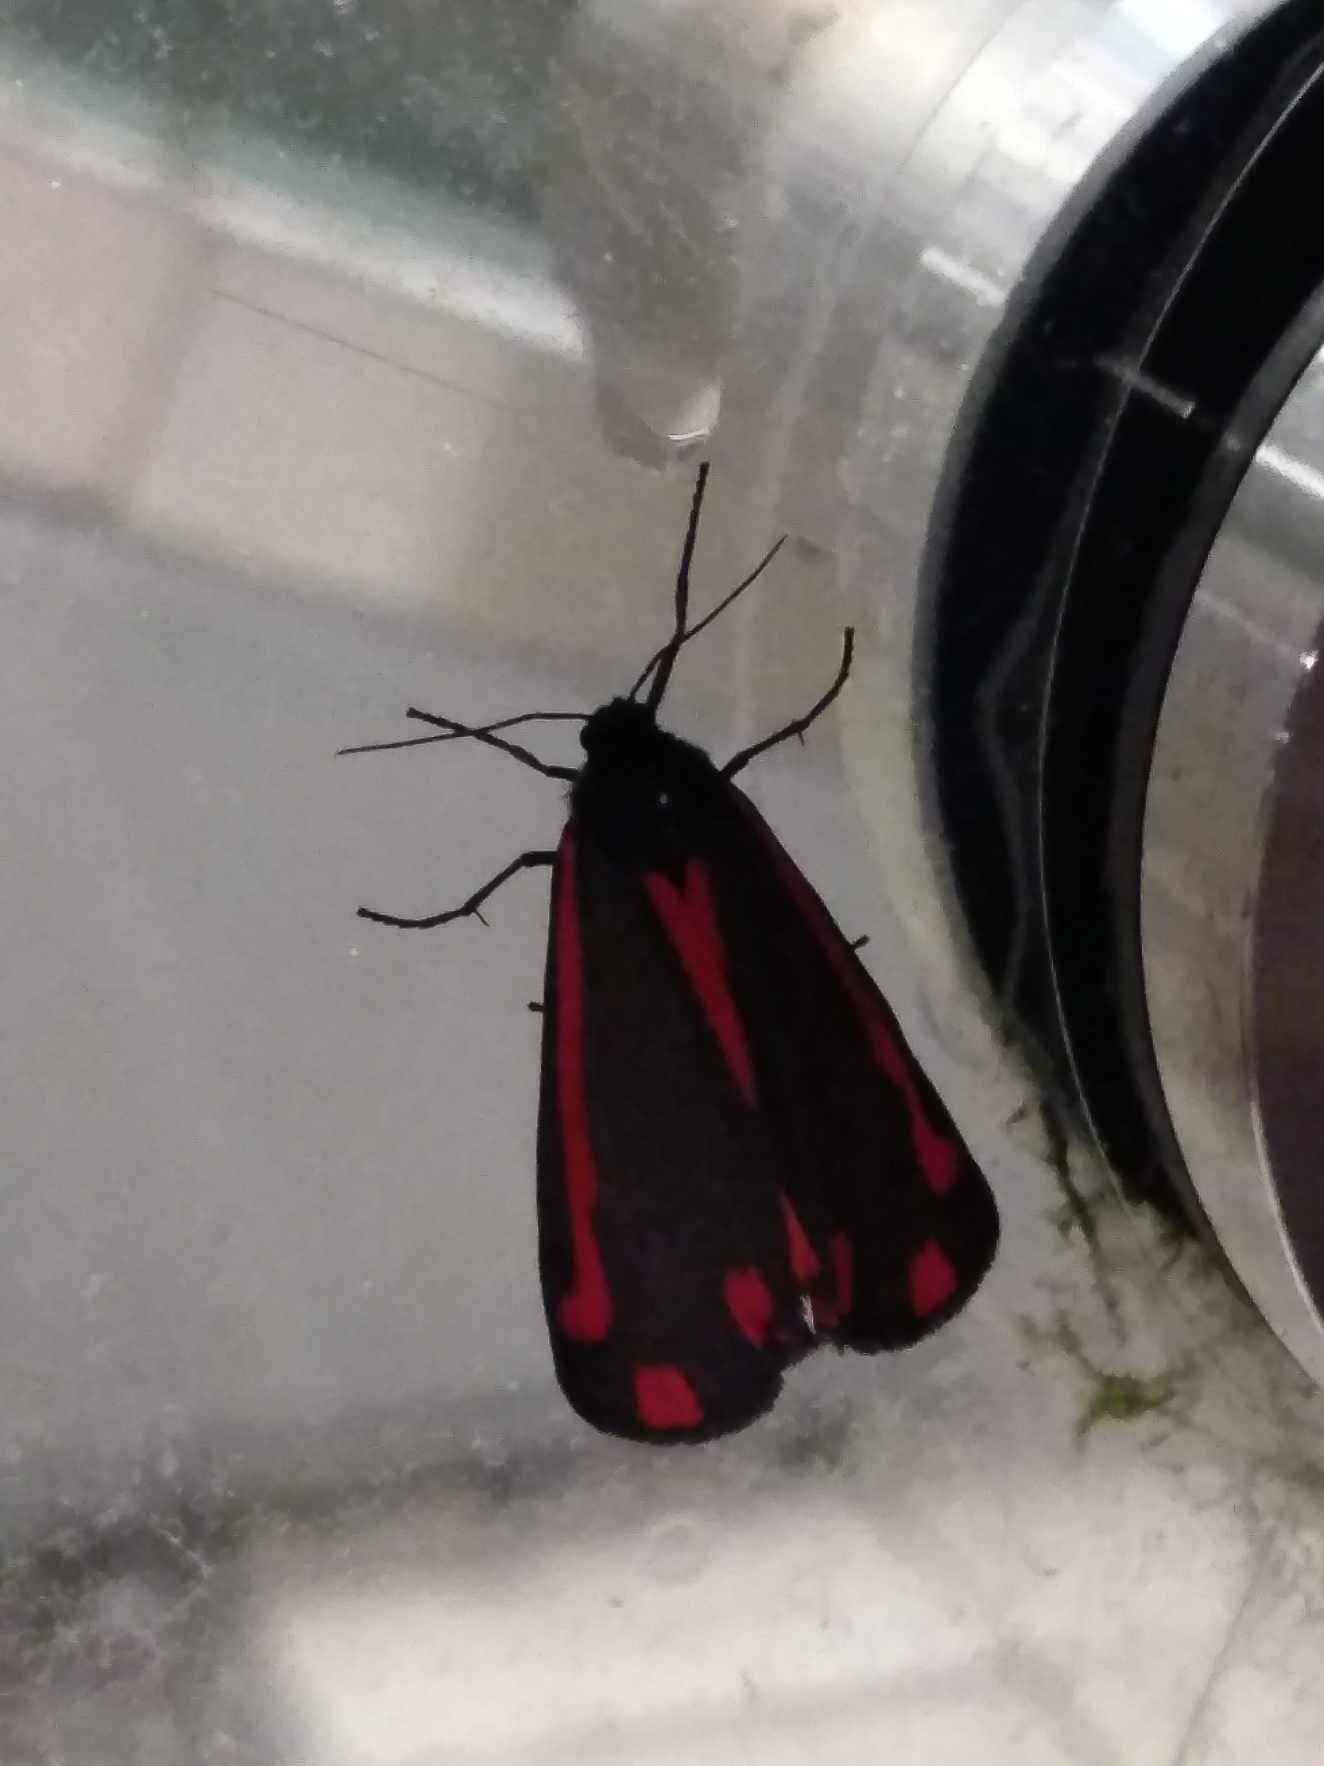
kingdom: Animalia
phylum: Arthropoda
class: Insecta
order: Lepidoptera
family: Erebidae
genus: Tyria
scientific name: Tyria jacobaeae
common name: Blodplet
